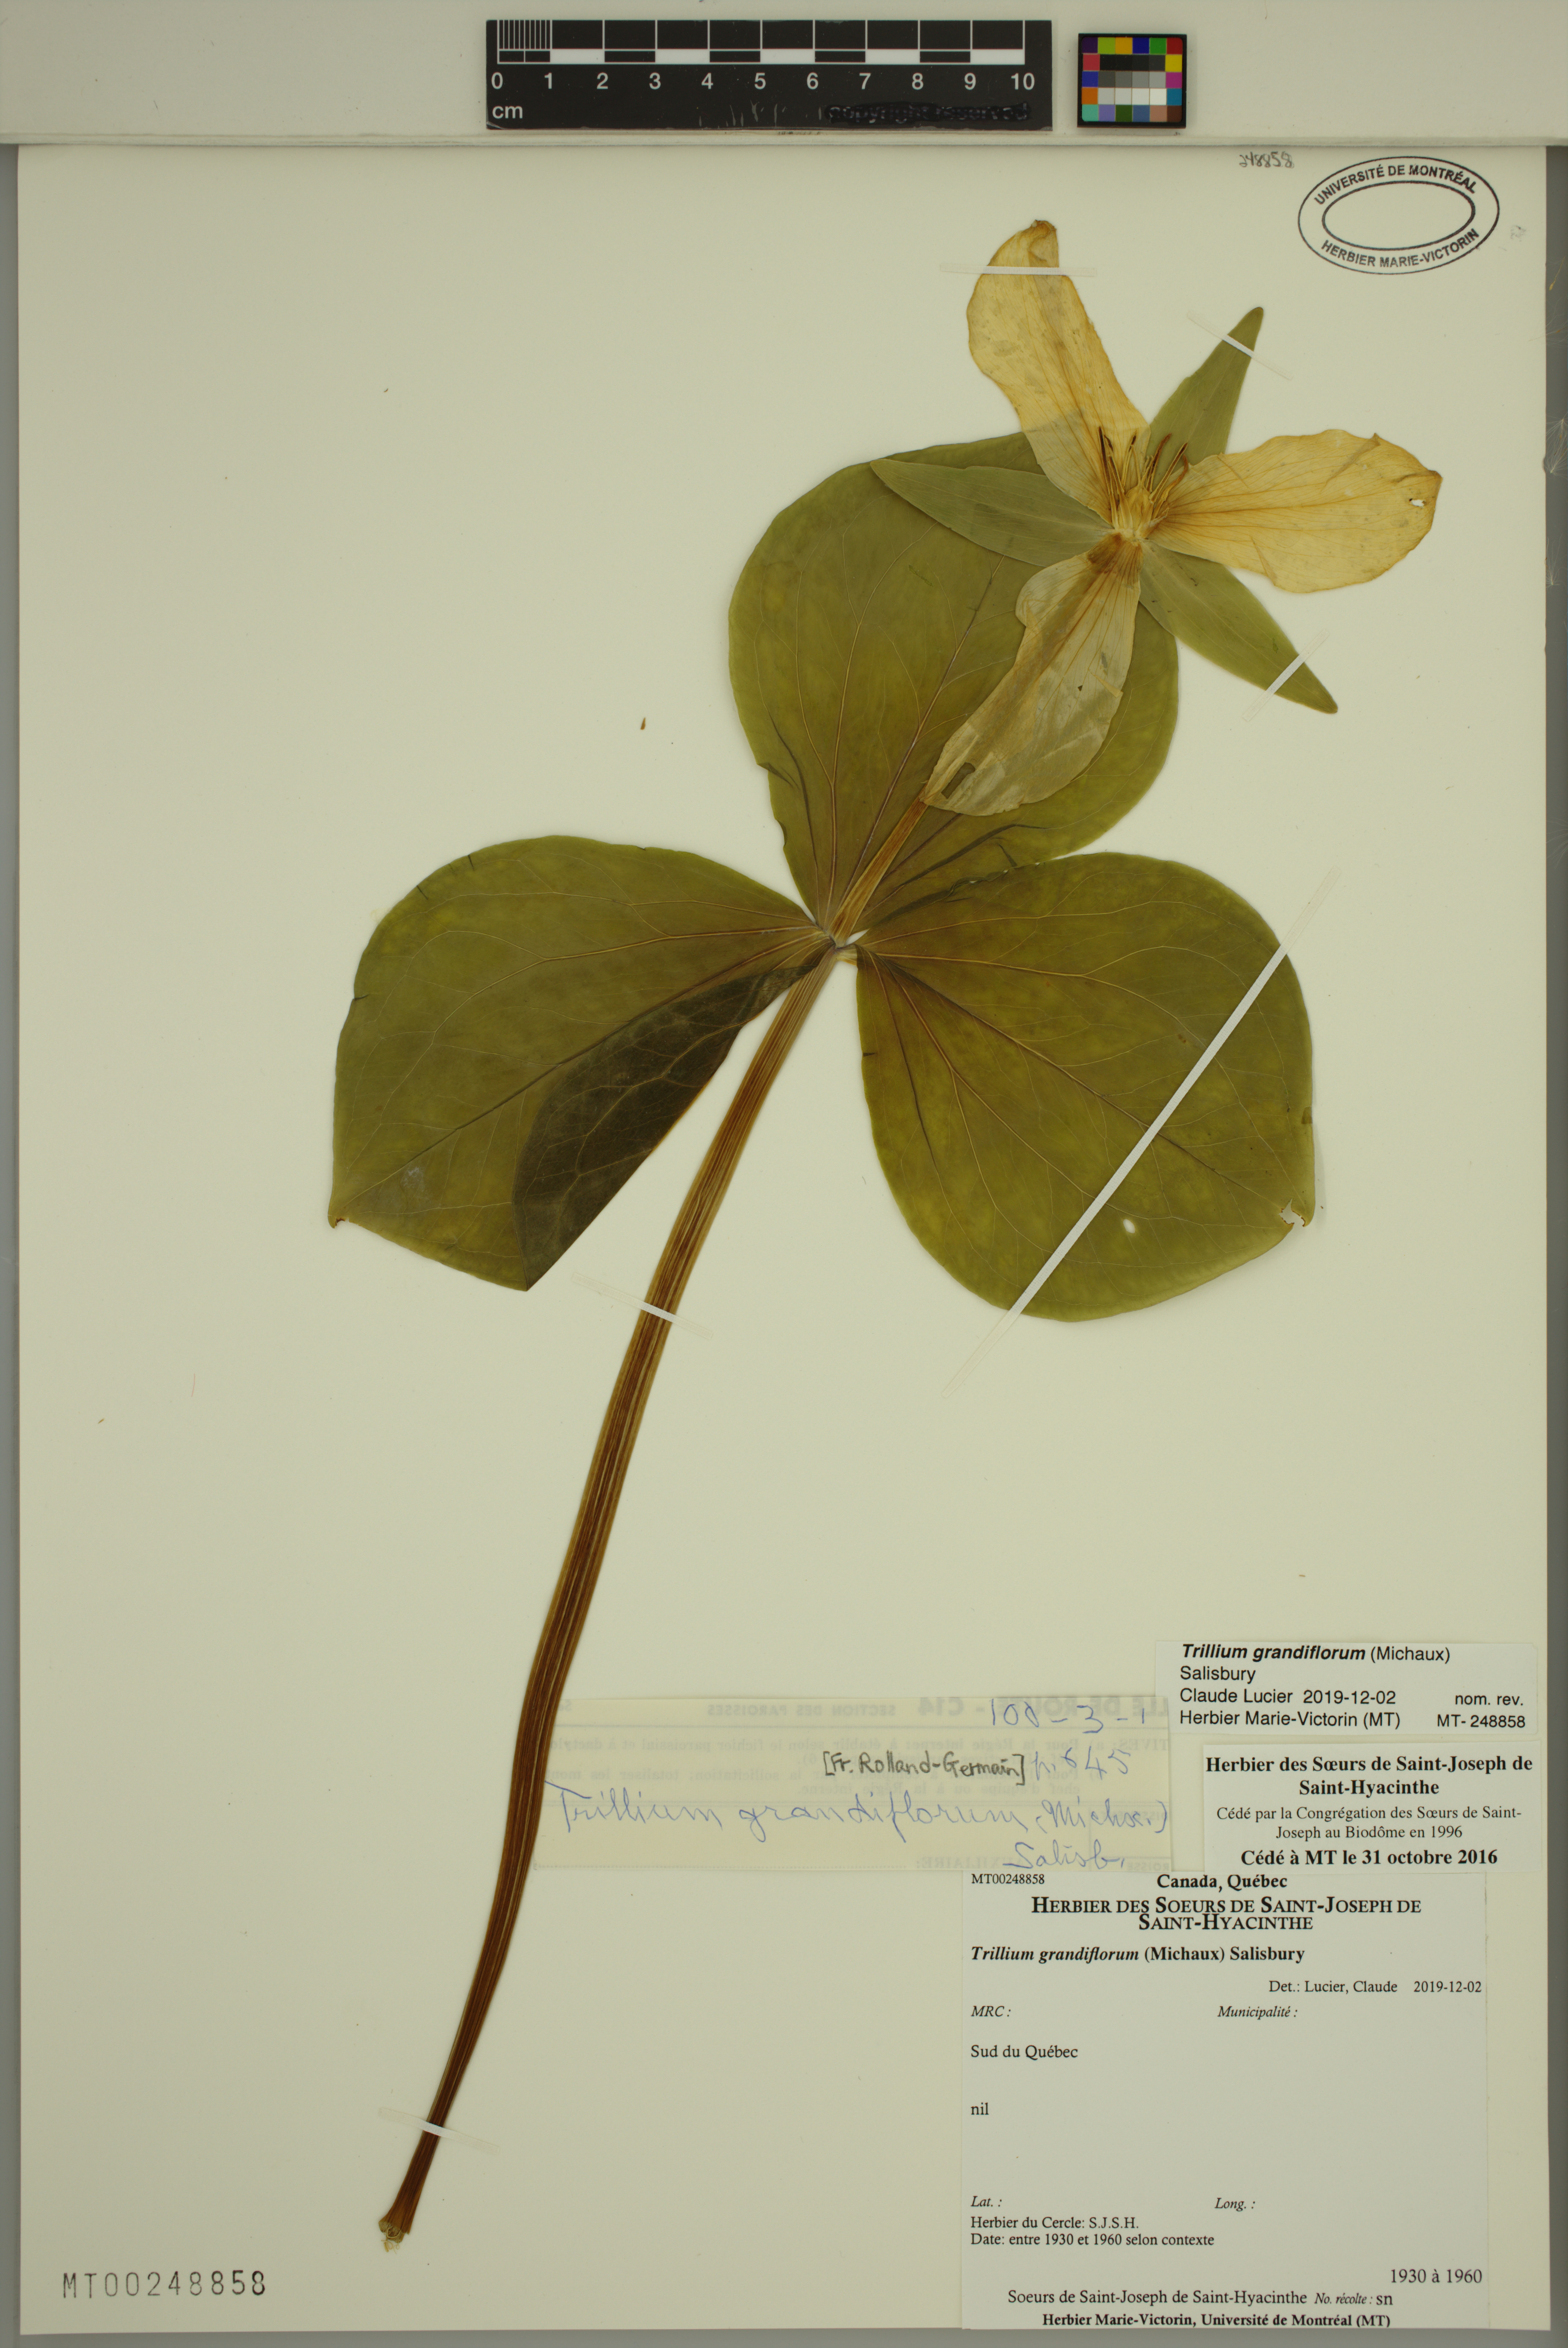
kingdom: Plantae
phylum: Tracheophyta
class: Liliopsida
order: Liliales
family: Melanthiaceae
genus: Trillium
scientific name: Trillium grandiflorum
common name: Great white trillium
